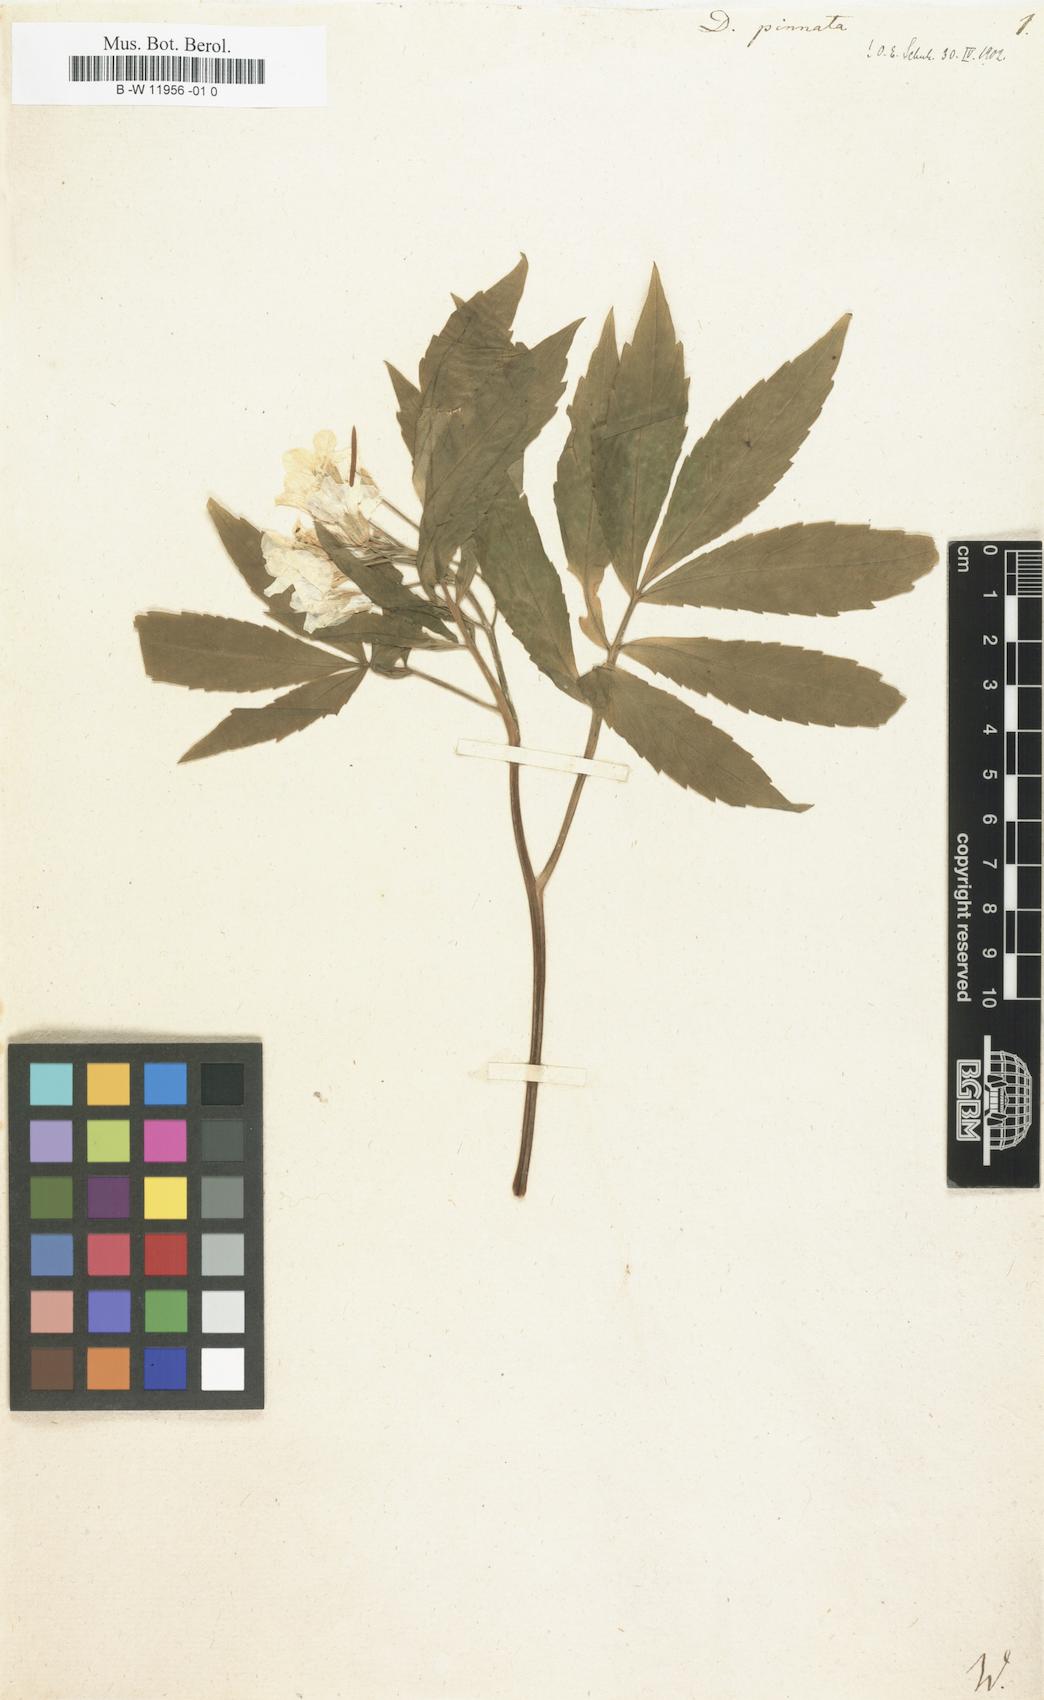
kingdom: Plantae
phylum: Tracheophyta
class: Magnoliopsida
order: Brassicales
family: Brassicaceae
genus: Cardamine
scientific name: Cardamine heptaphylla
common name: Pinnate coralroot
